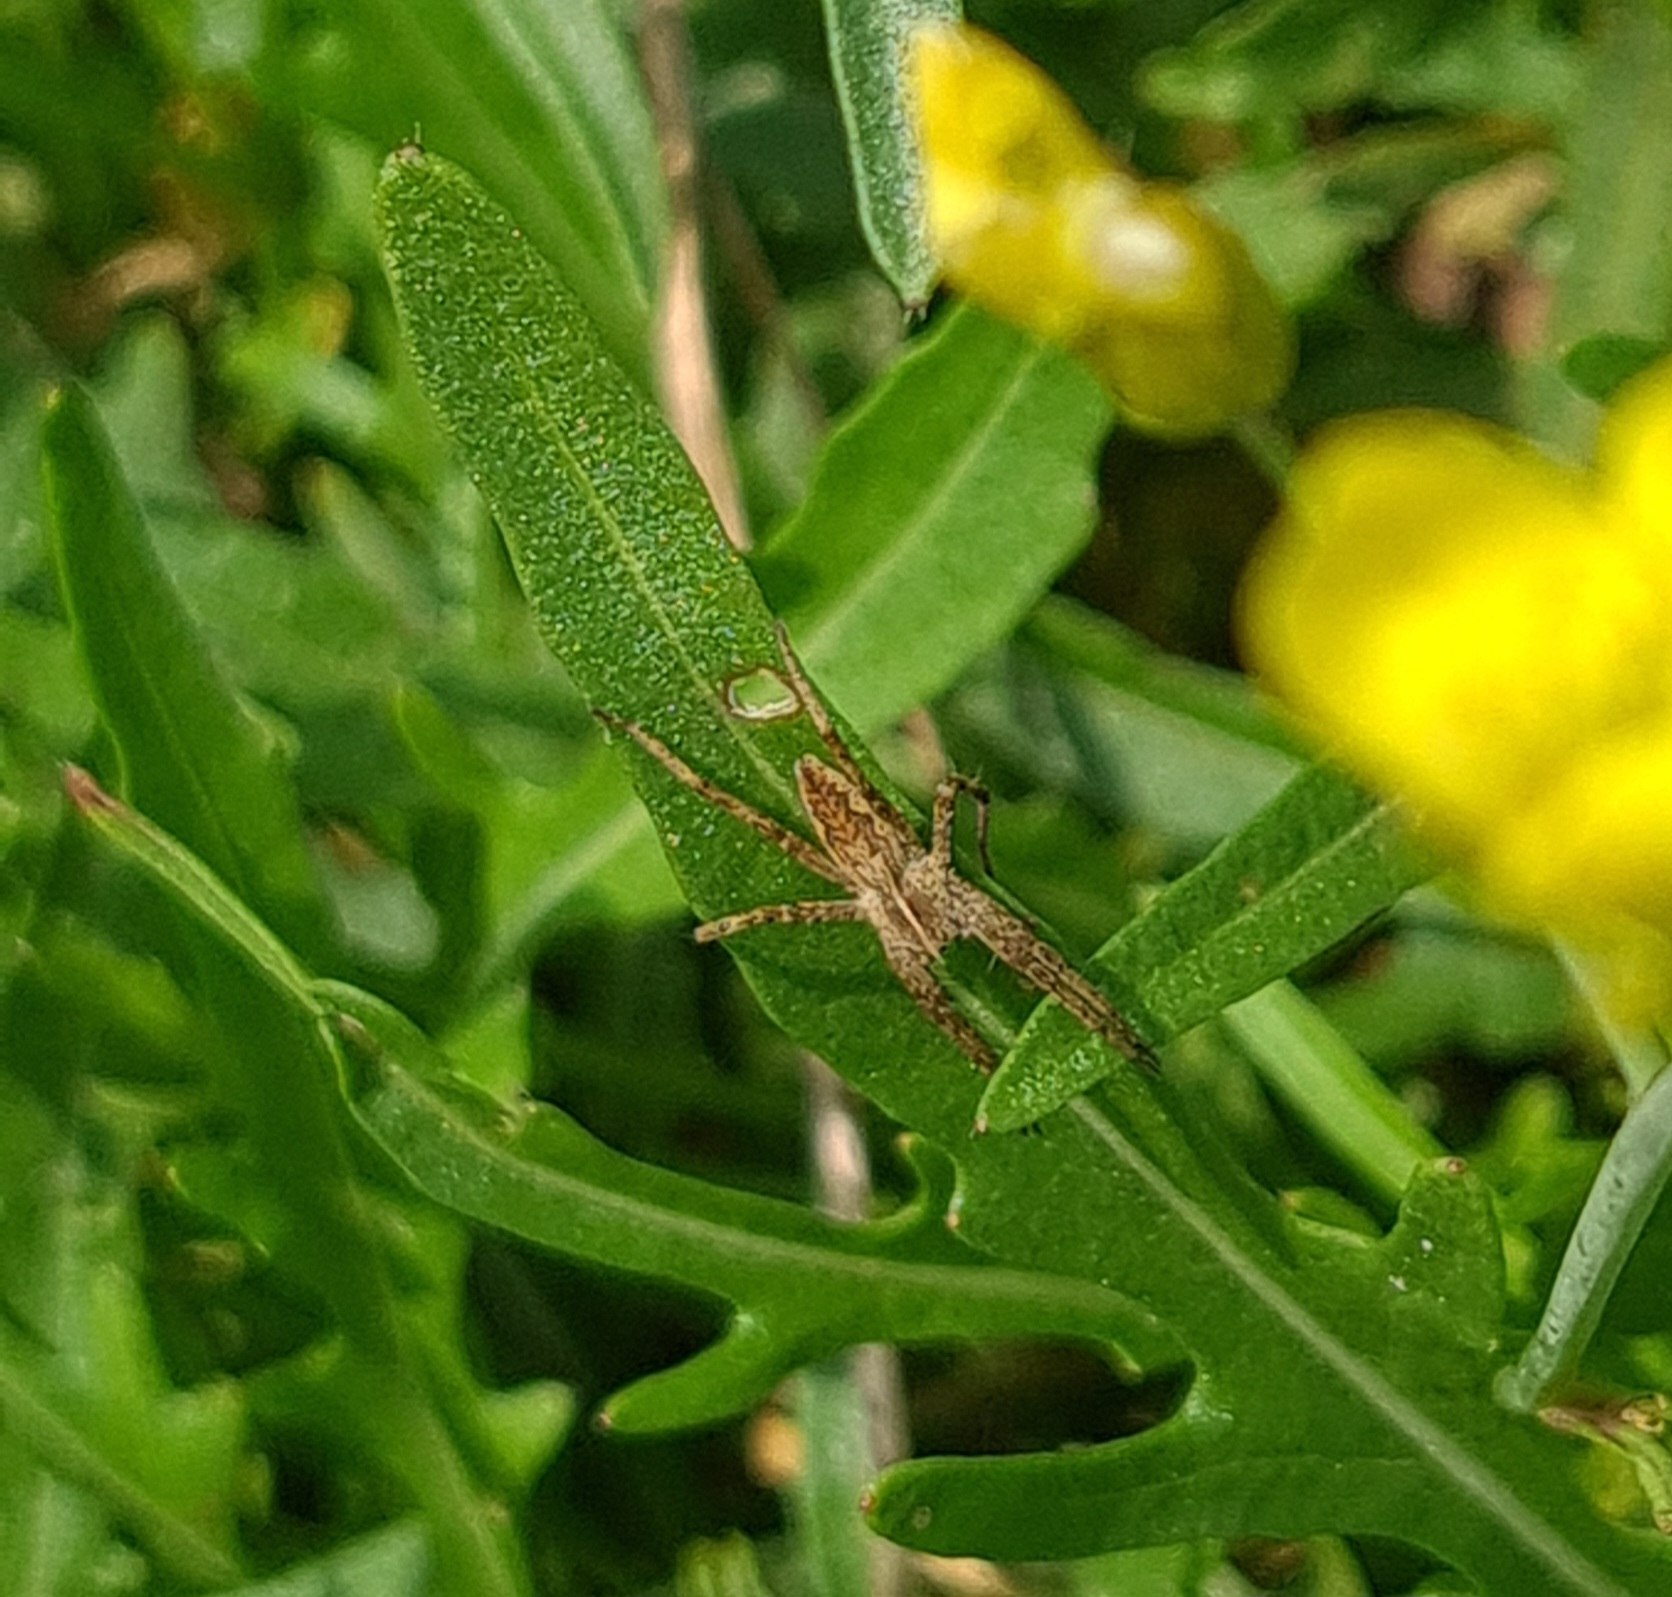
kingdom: Animalia
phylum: Arthropoda
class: Arachnida
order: Araneae
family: Pisauridae
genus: Pisaura
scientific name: Pisaura mirabilis
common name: Almindelig rovedderkop
